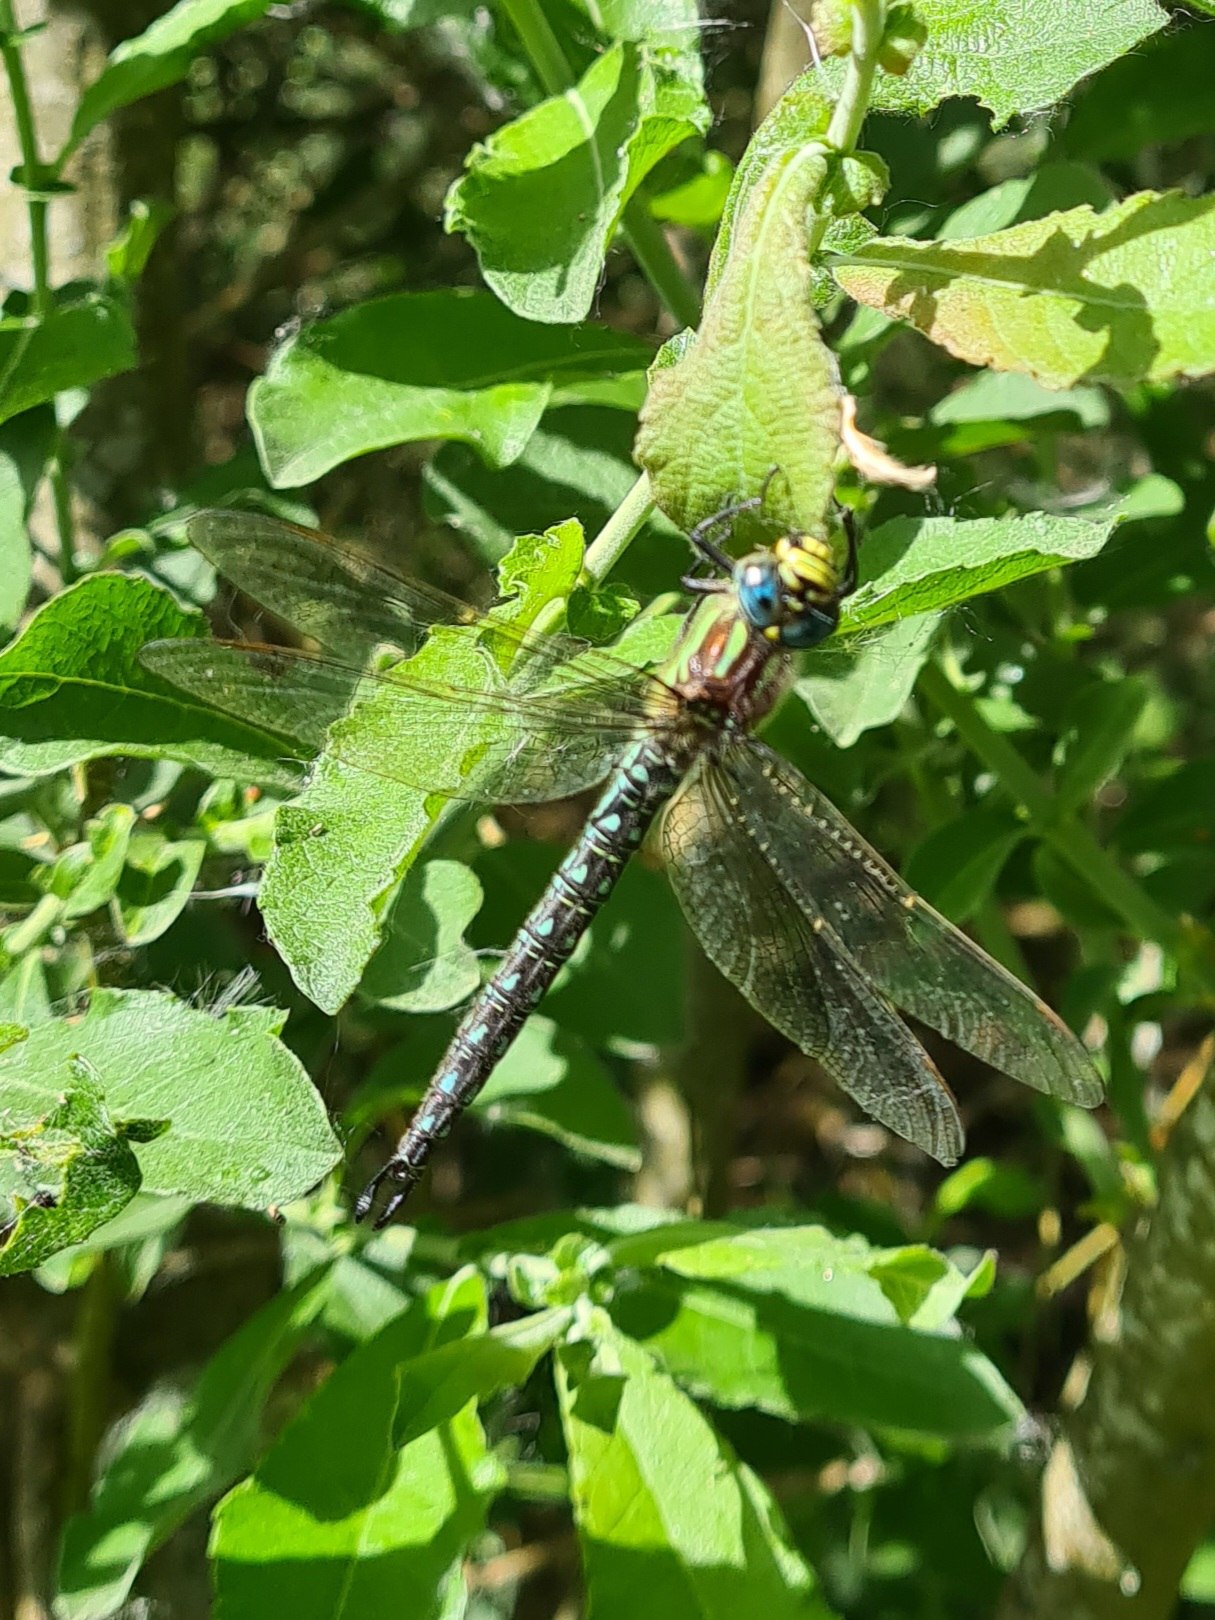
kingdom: Animalia
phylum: Arthropoda
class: Insecta
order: Odonata
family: Aeshnidae
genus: Brachytron
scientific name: Brachytron pratense
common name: Håret mosaikguldsmed
